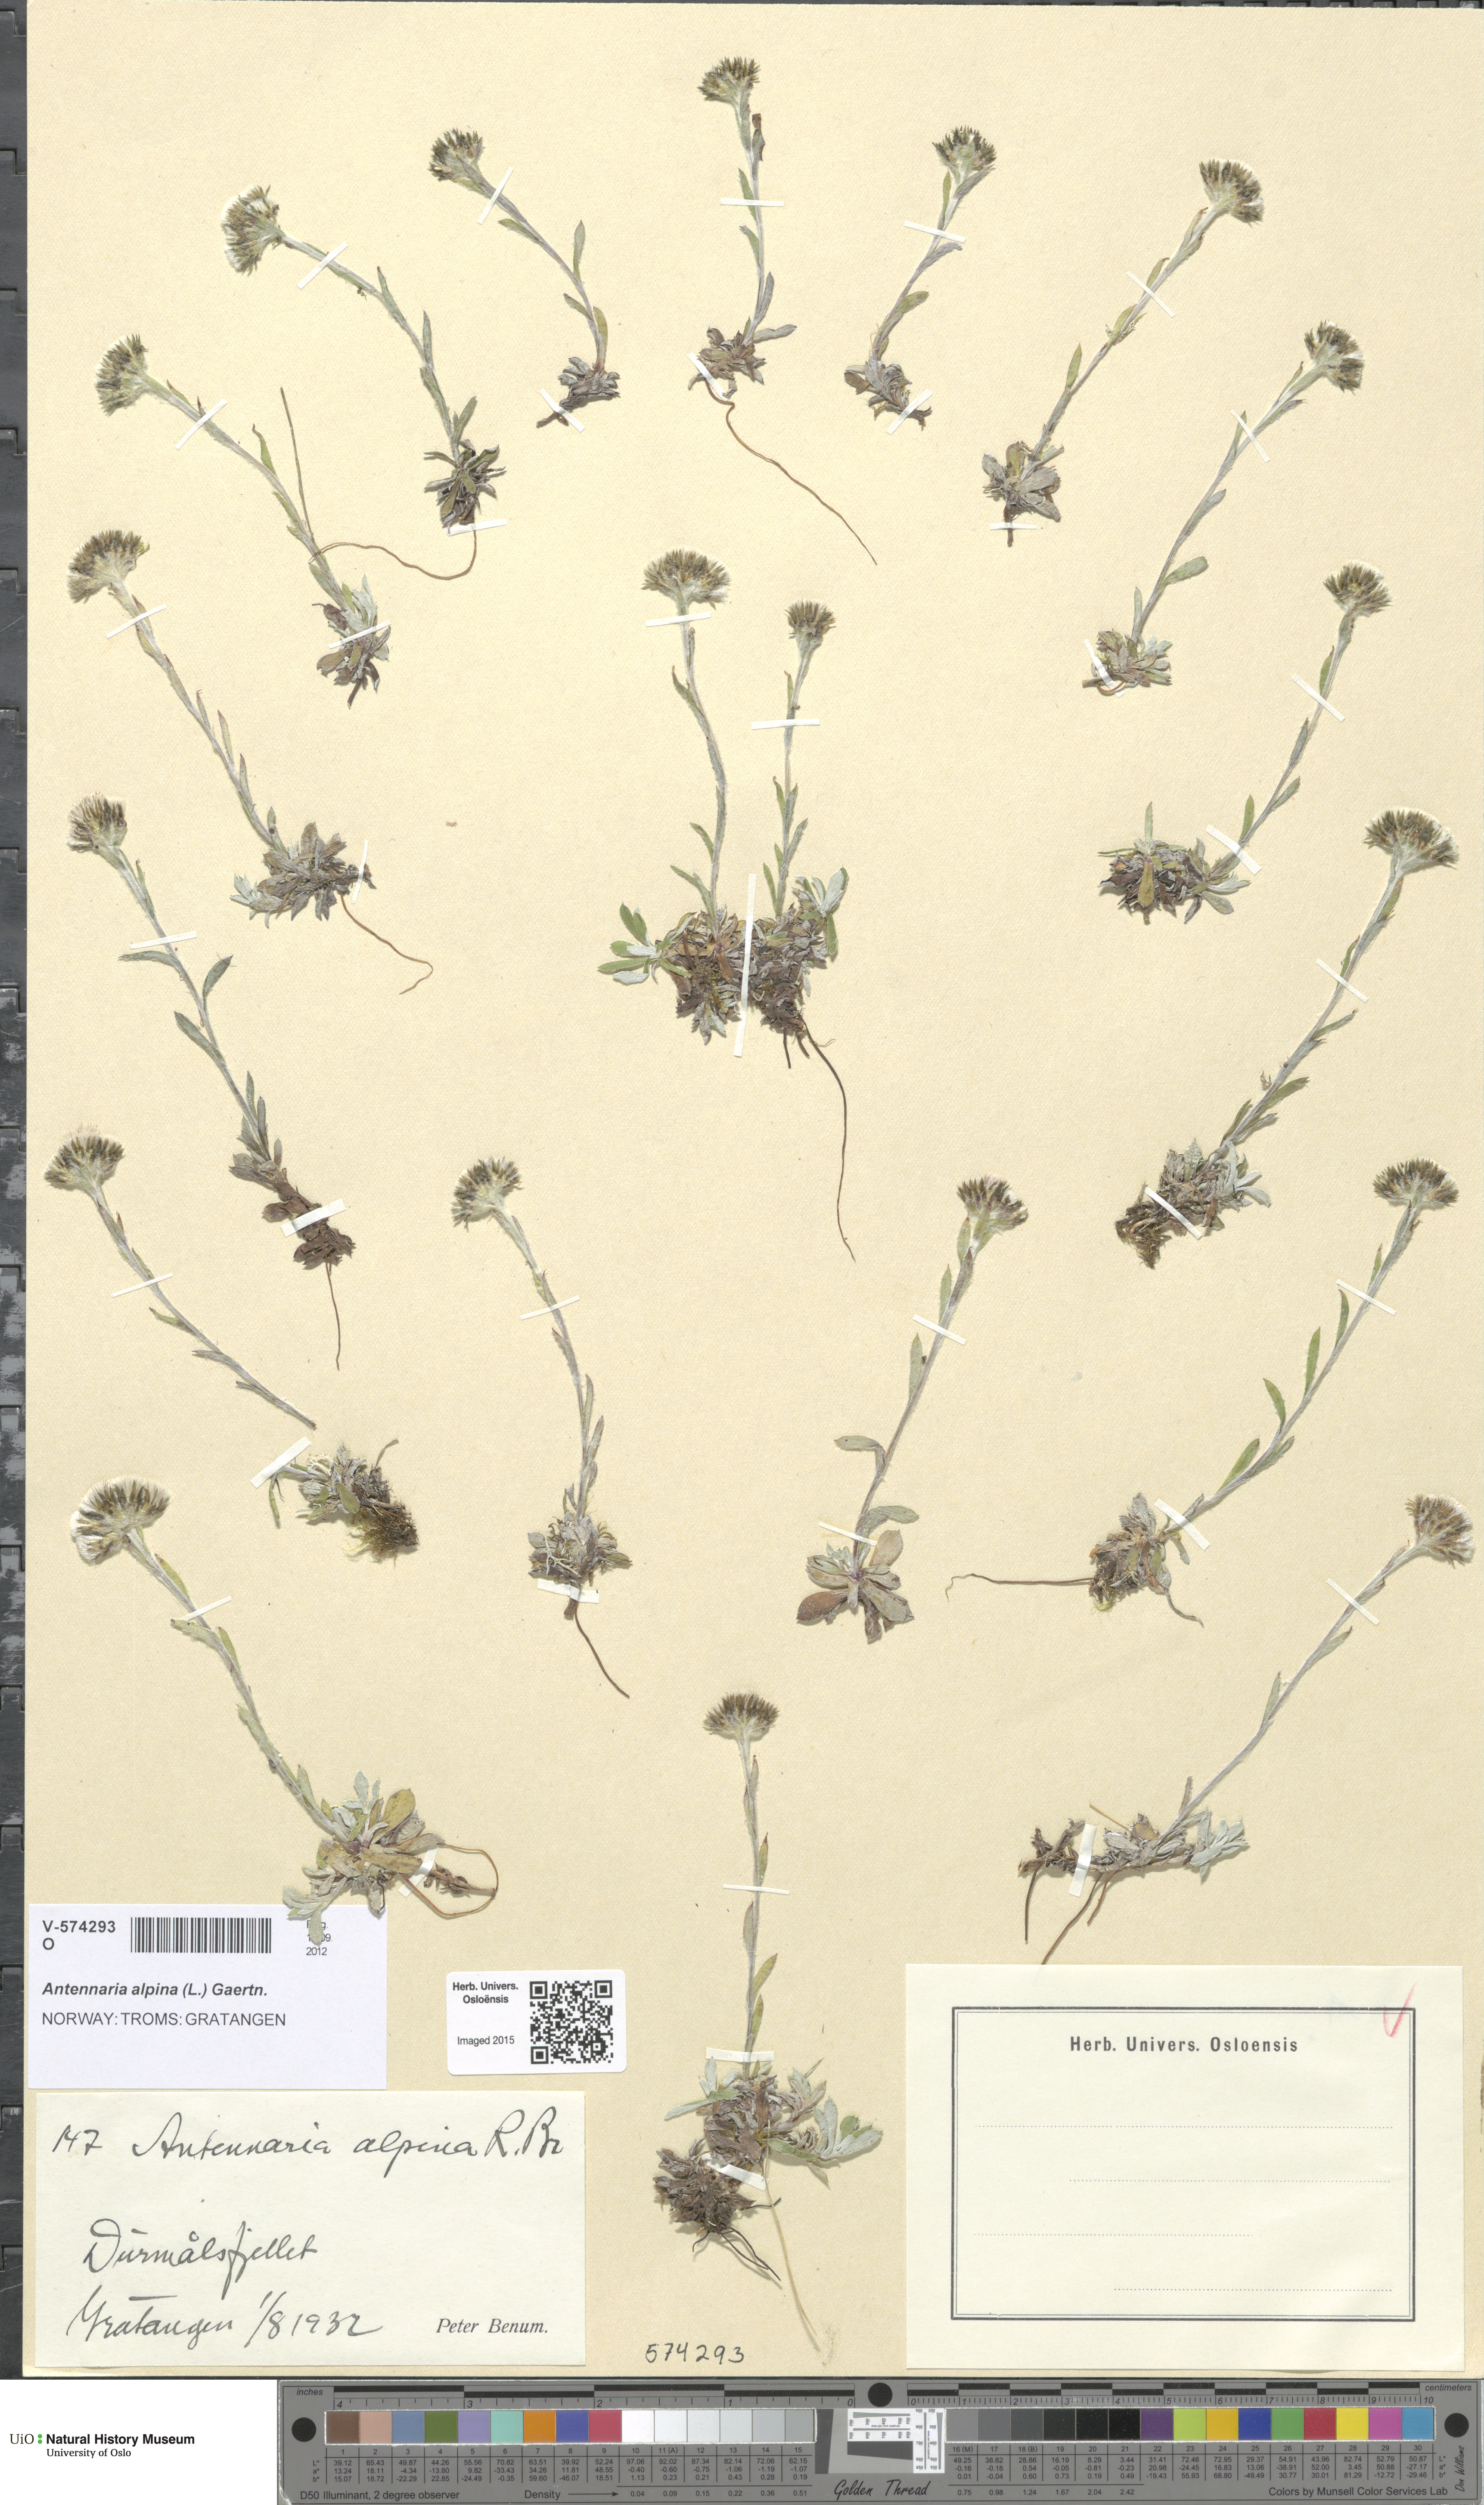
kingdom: Plantae
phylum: Tracheophyta
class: Magnoliopsida
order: Asterales
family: Asteraceae
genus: Antennaria
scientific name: Antennaria alpina
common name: Alpine pussytoes
